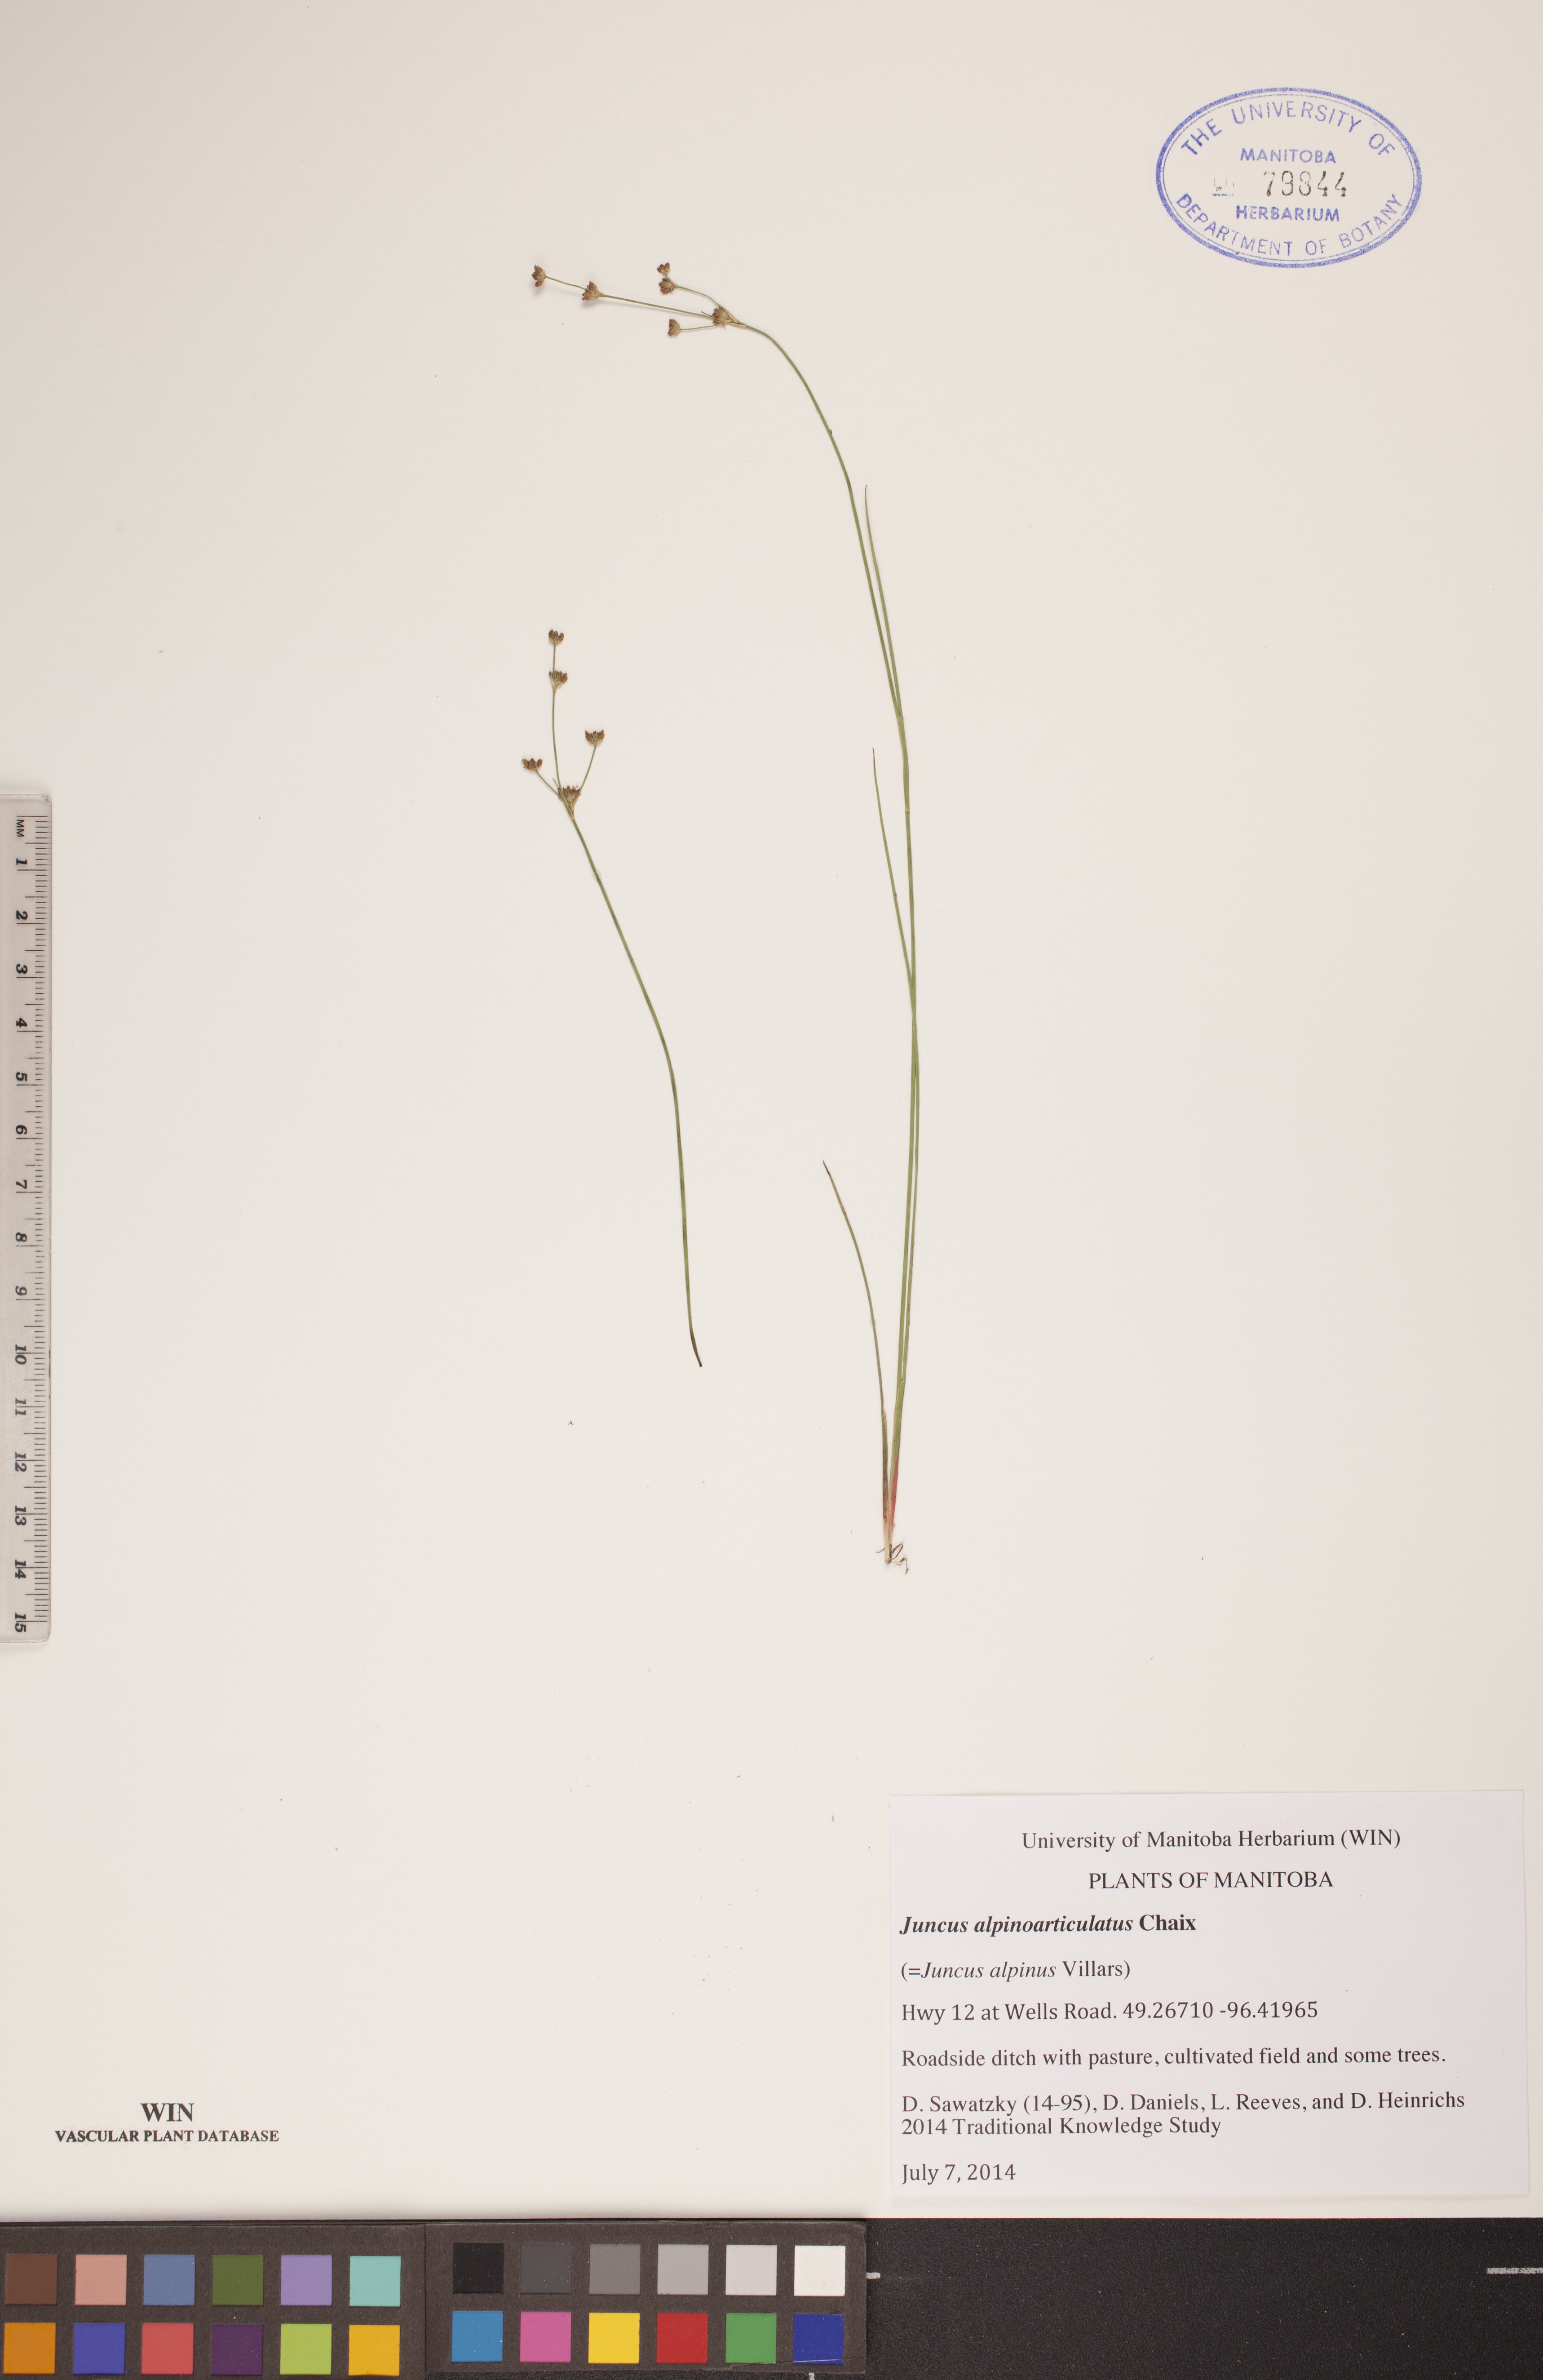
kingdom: Plantae
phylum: Tracheophyta
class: Liliopsida
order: Poales
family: Juncaceae
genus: Juncus
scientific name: Juncus alpinoarticulatus
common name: Alpine rush
